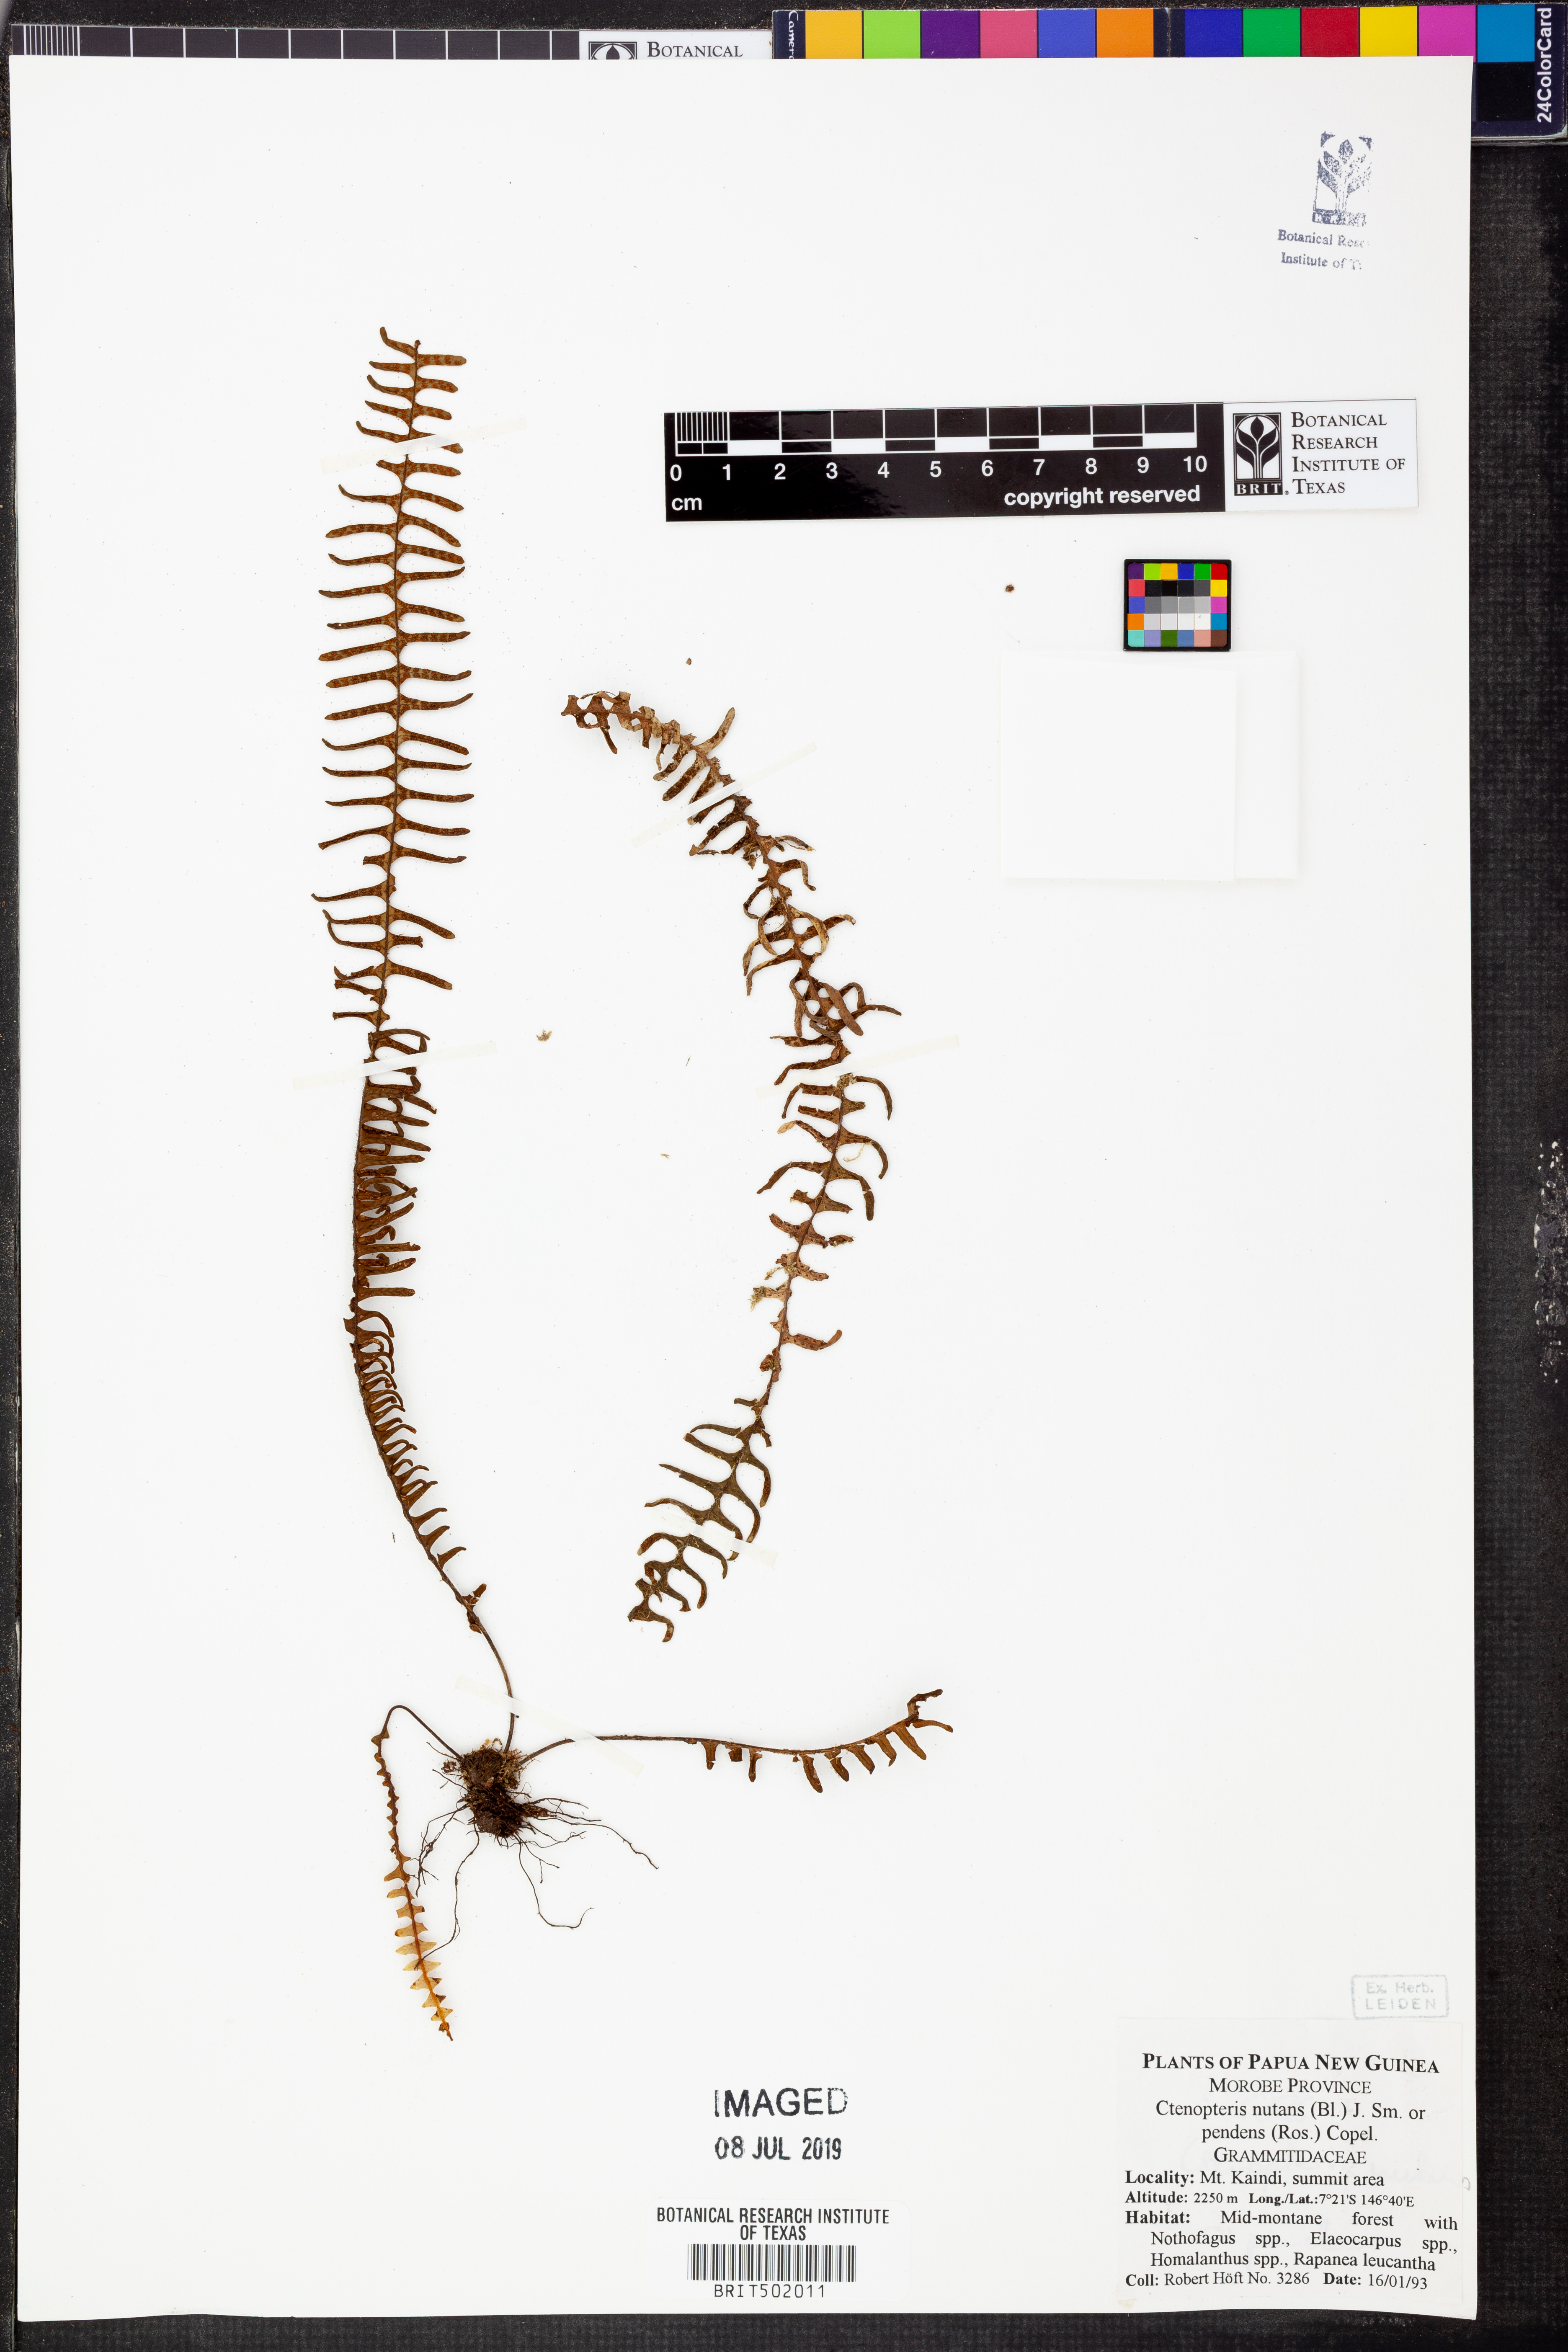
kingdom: Plantae
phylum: Tracheophyta
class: Polypodiopsida
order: Polypodiales
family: Polypodiaceae
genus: Prosaptia
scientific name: Prosaptia nutans
